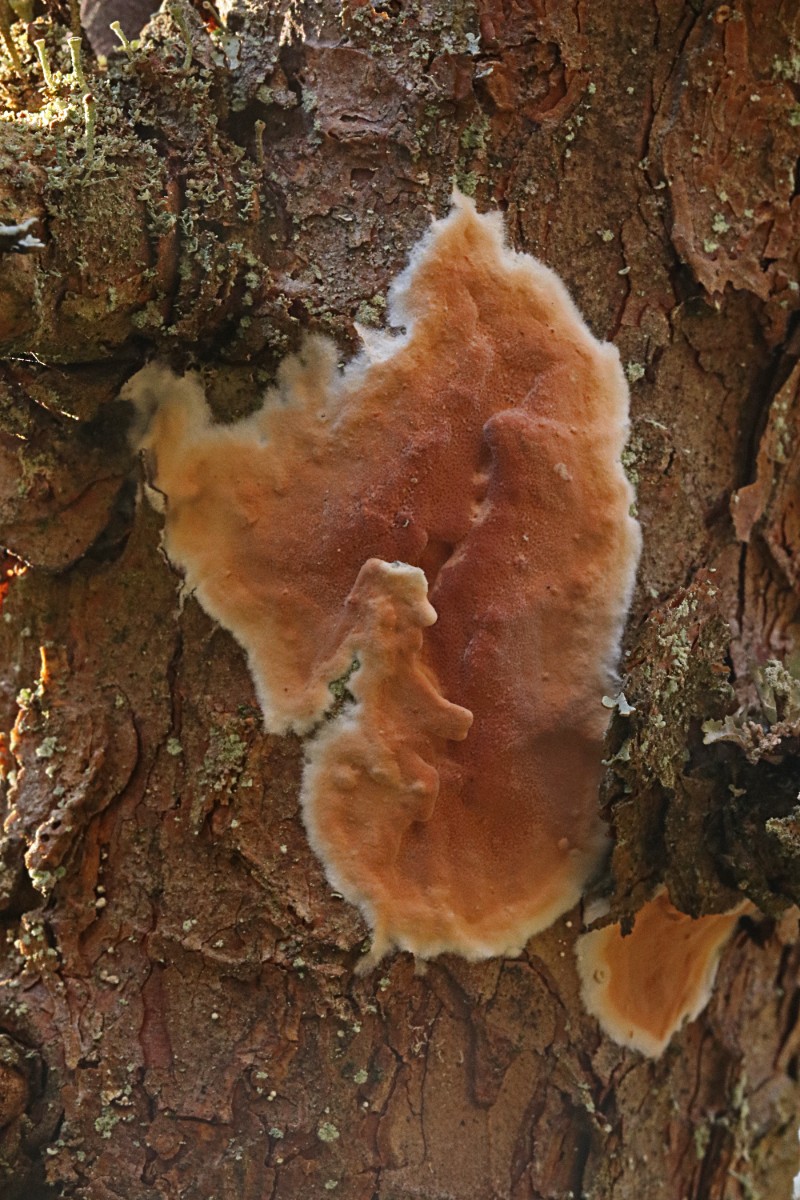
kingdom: Fungi
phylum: Basidiomycota
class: Agaricomycetes
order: Polyporales
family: Irpicaceae
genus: Meruliopsis
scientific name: Meruliopsis taxicola
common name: purpurbrun foldporesvamp
